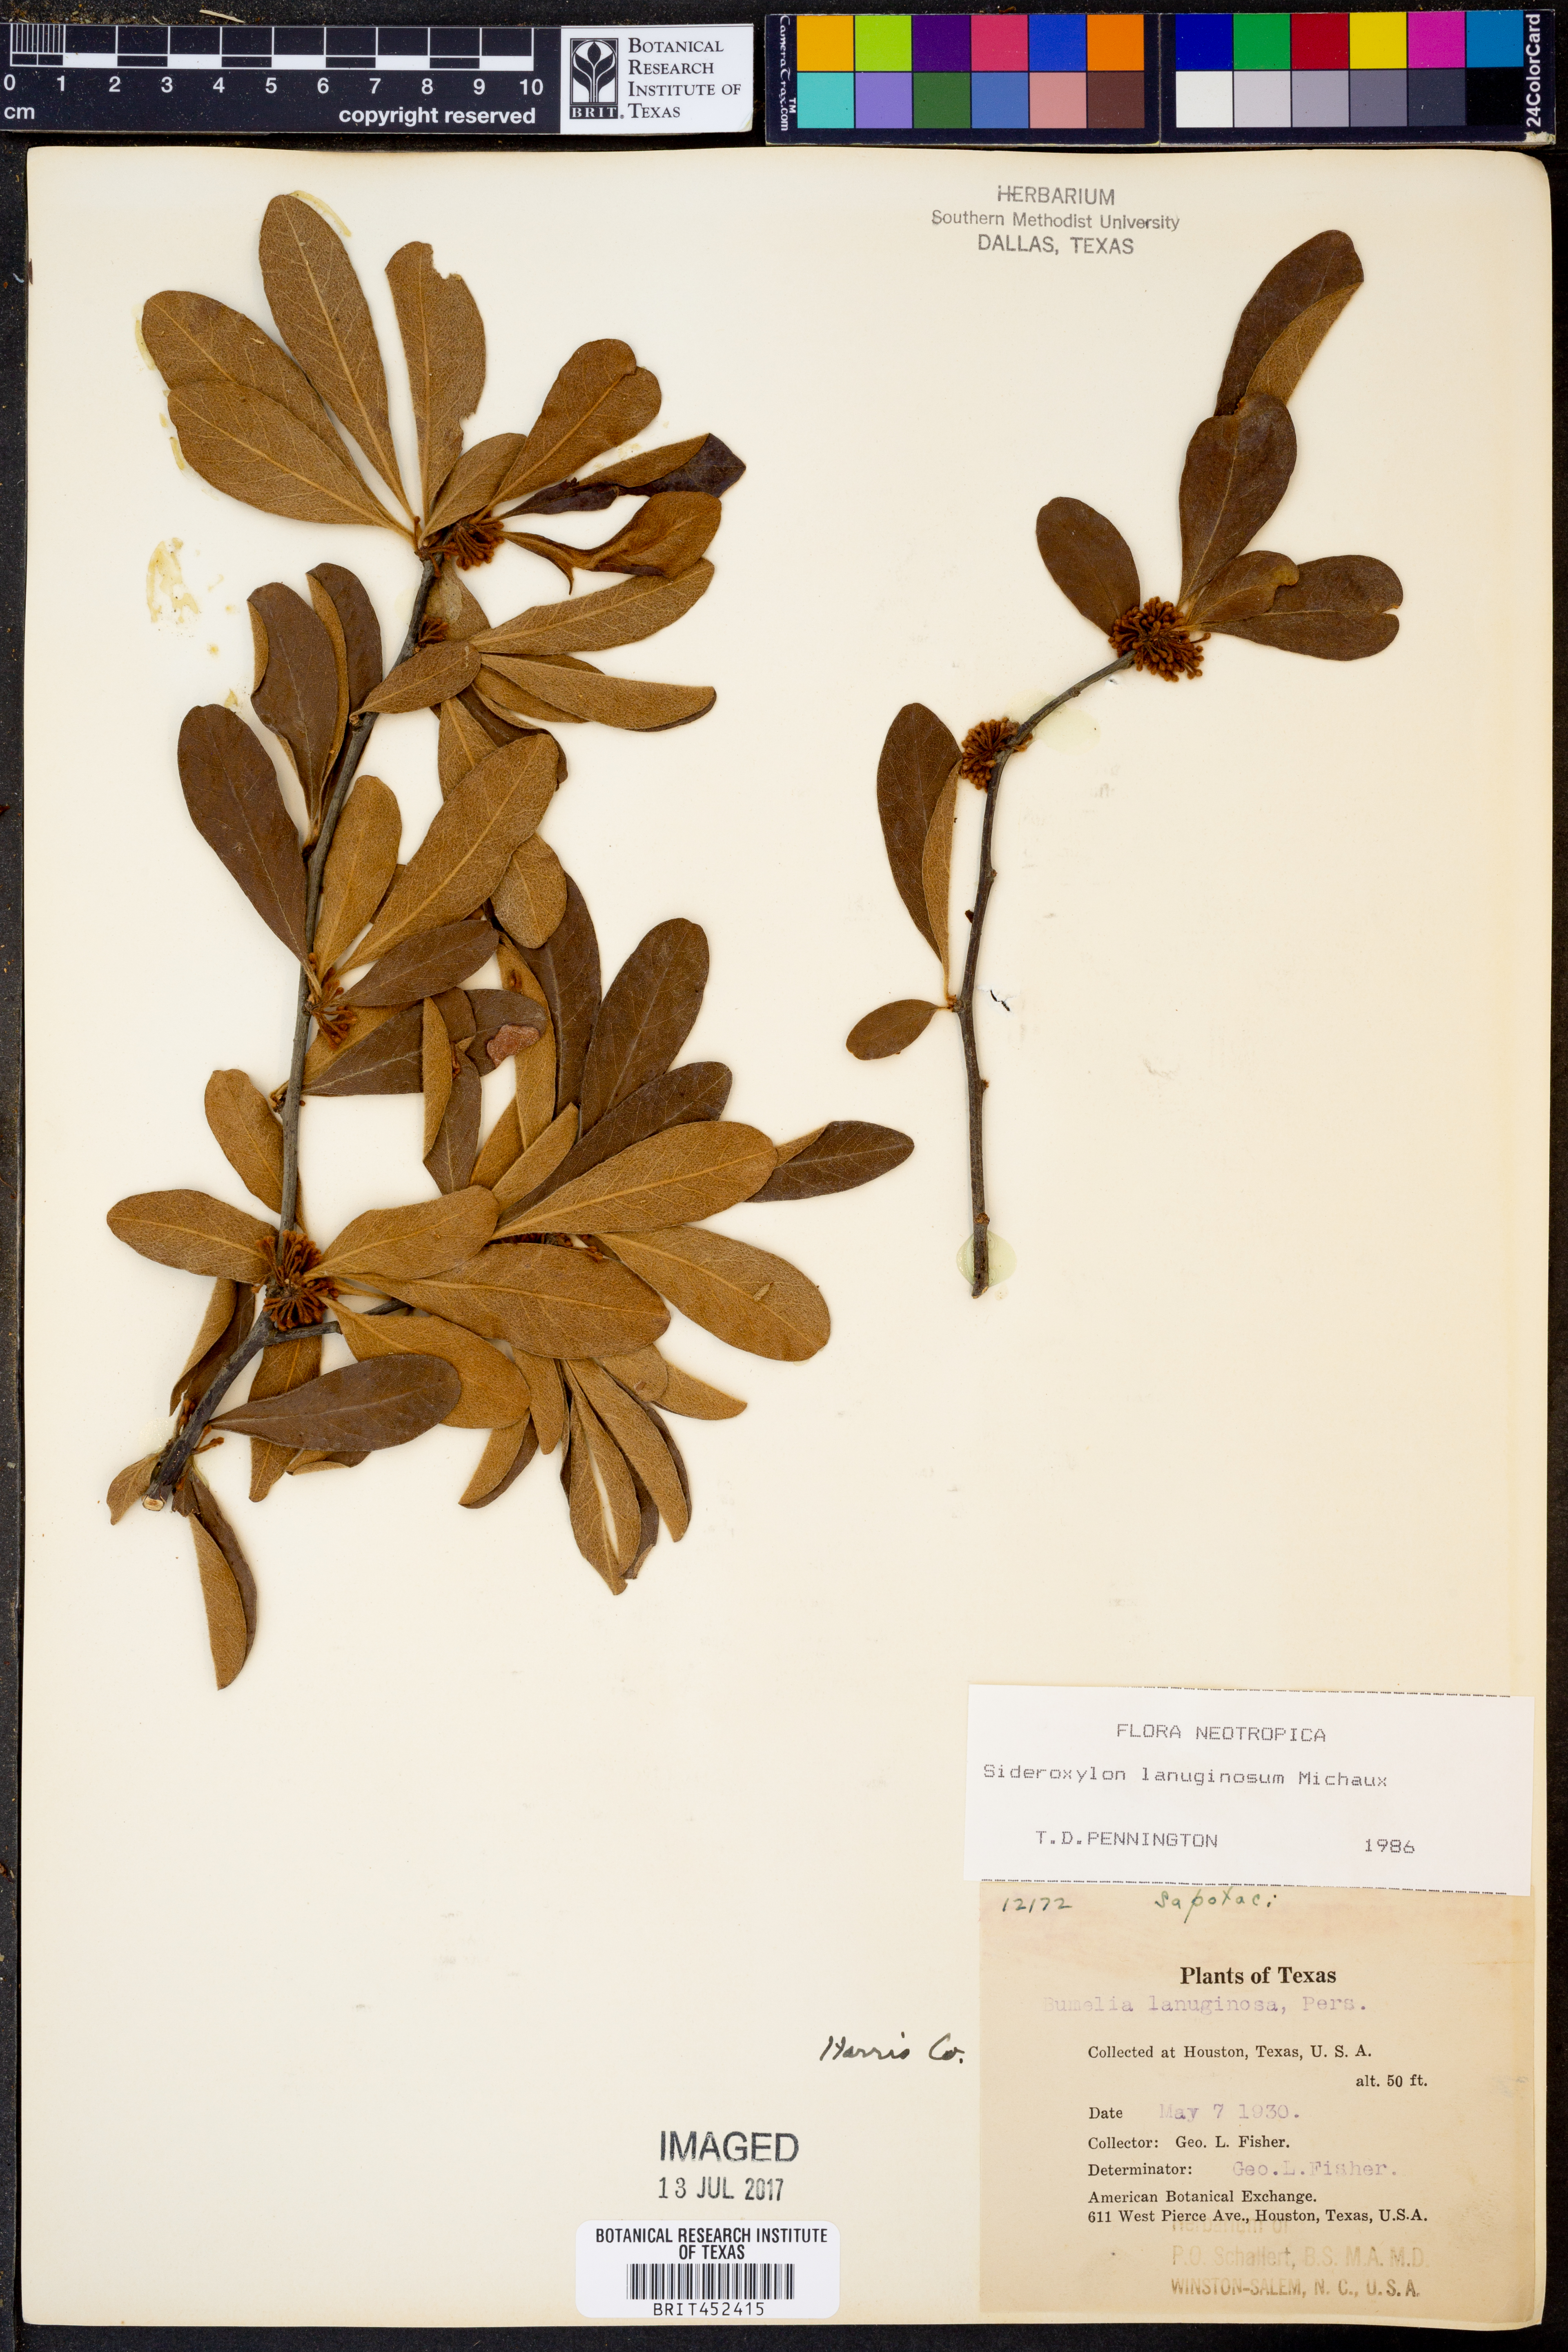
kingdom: Plantae
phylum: Tracheophyta
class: Magnoliopsida
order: Ericales
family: Sapotaceae
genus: Sideroxylon
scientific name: Sideroxylon lanuginosum
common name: Chittamwood
